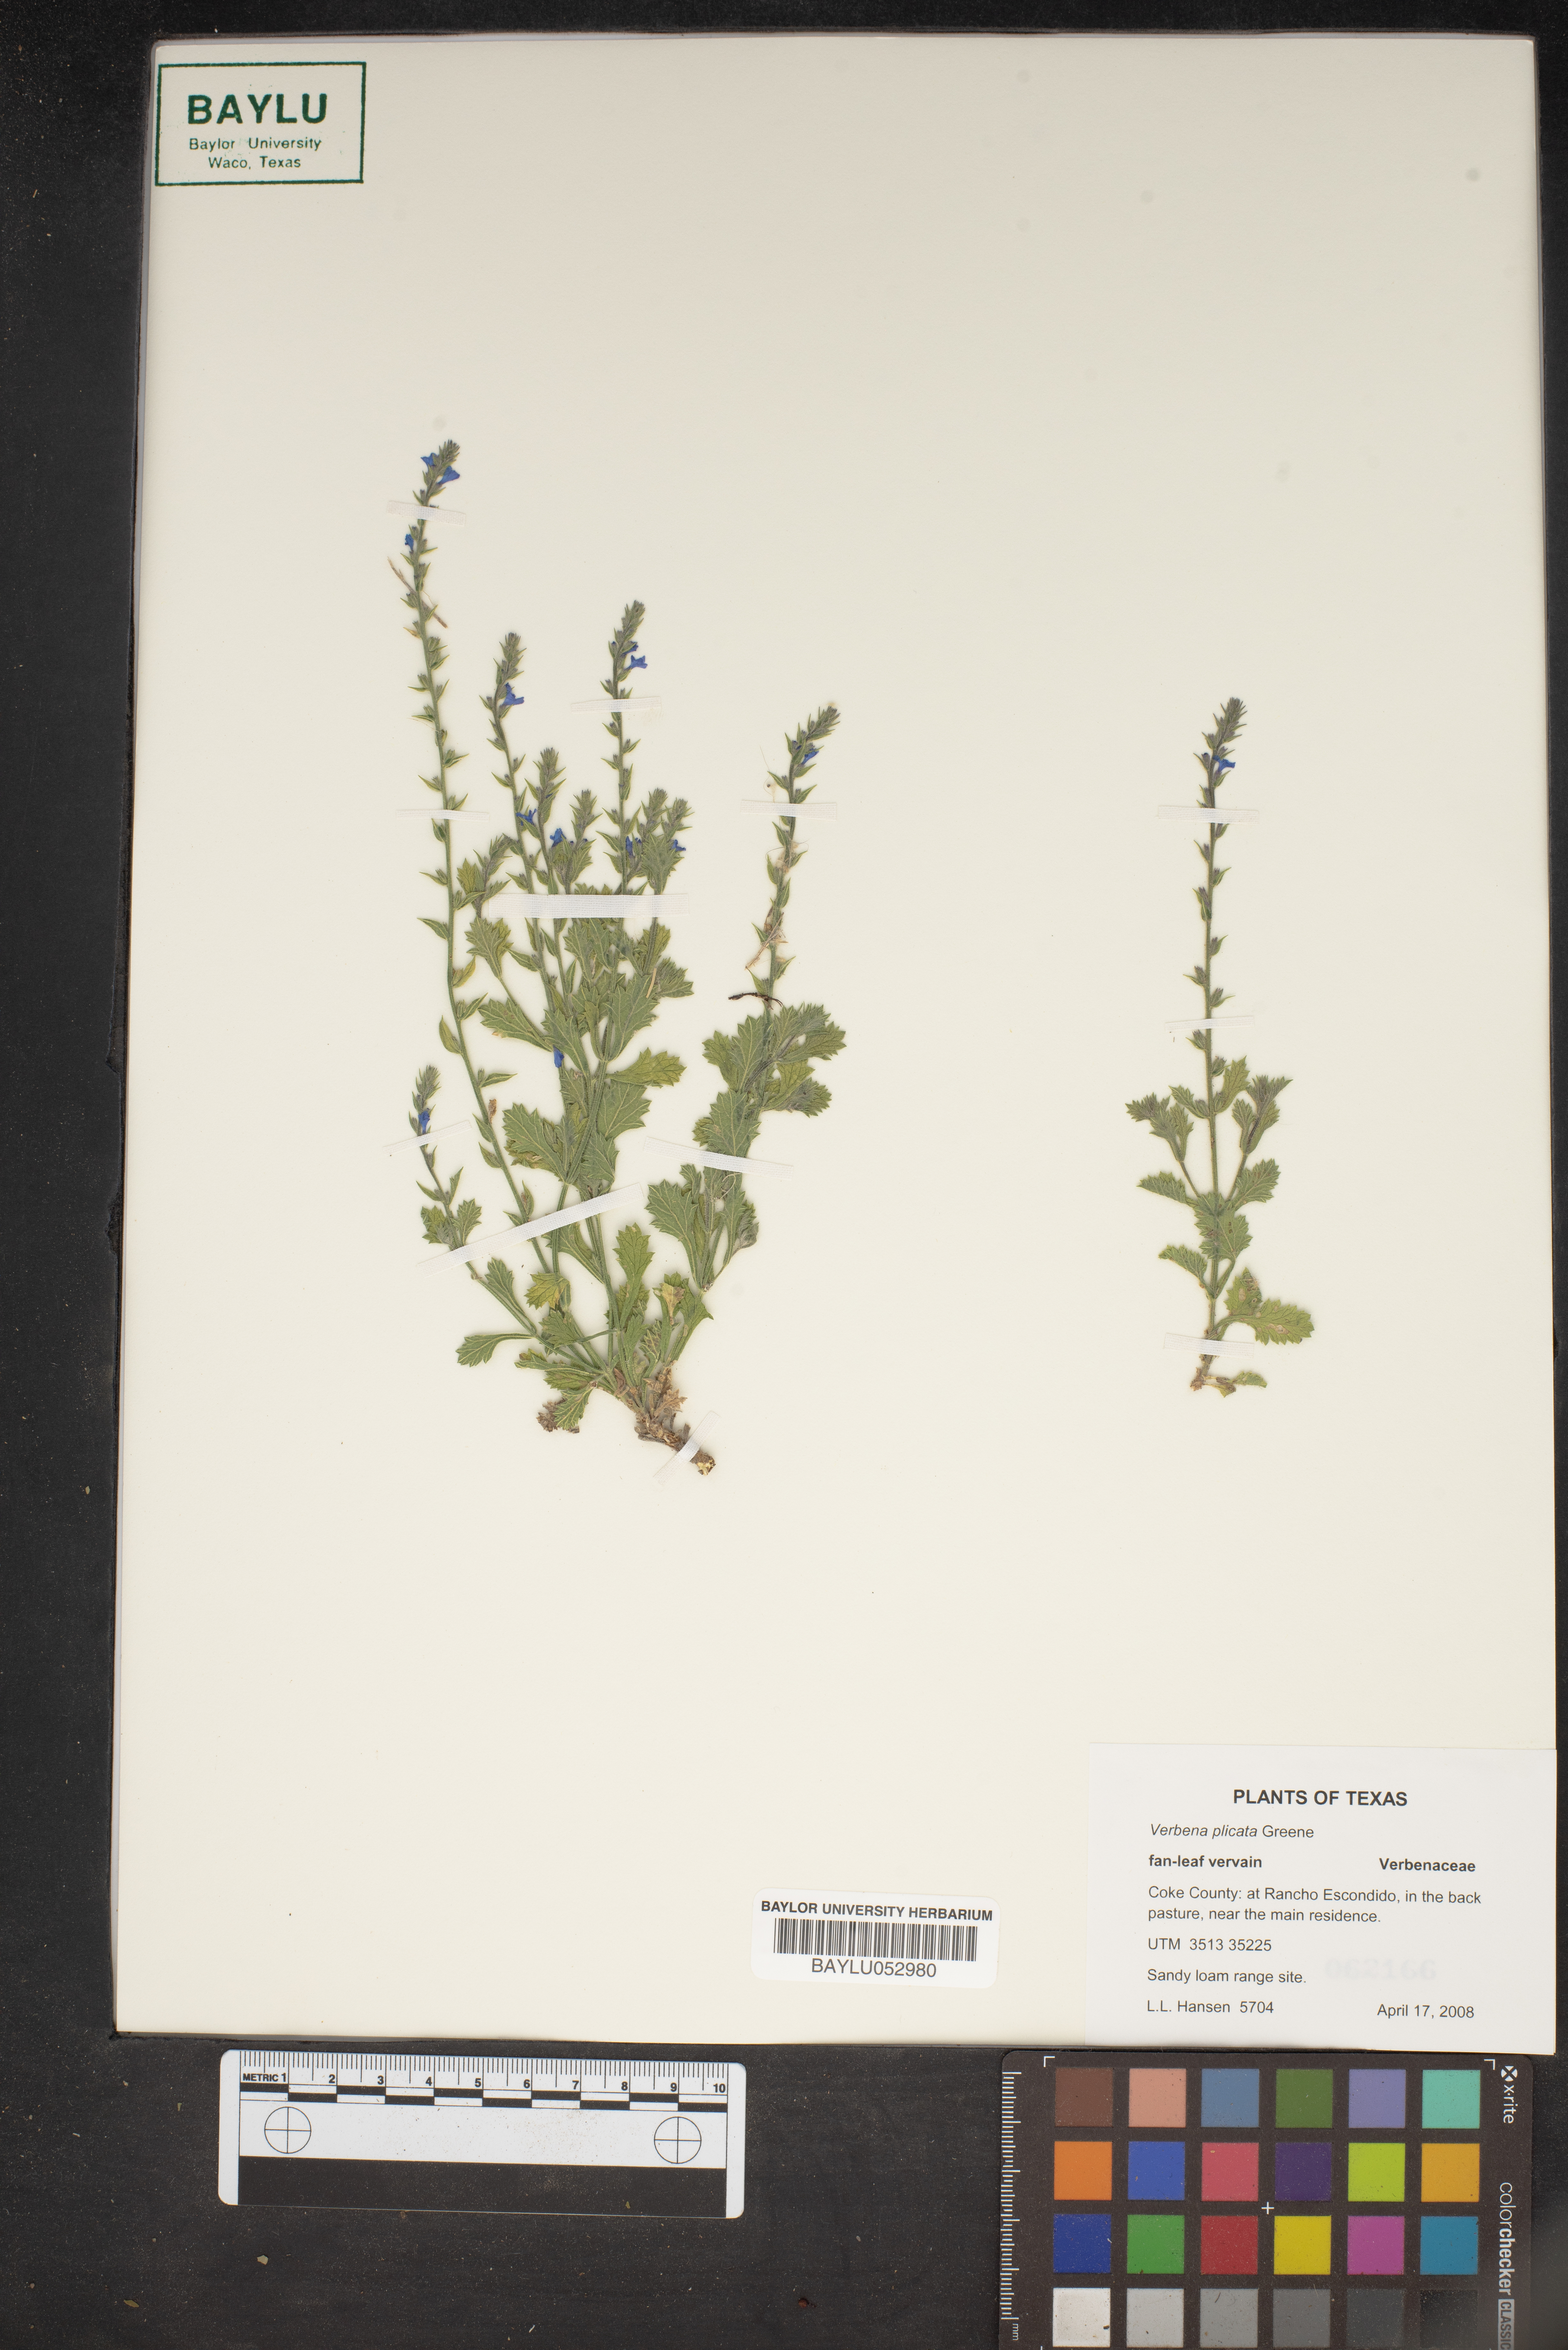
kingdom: Plantae
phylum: Tracheophyta
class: Magnoliopsida
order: Lamiales
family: Verbenaceae
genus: Verbena
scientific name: Verbena plicata
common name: Fan-leaf vervain
